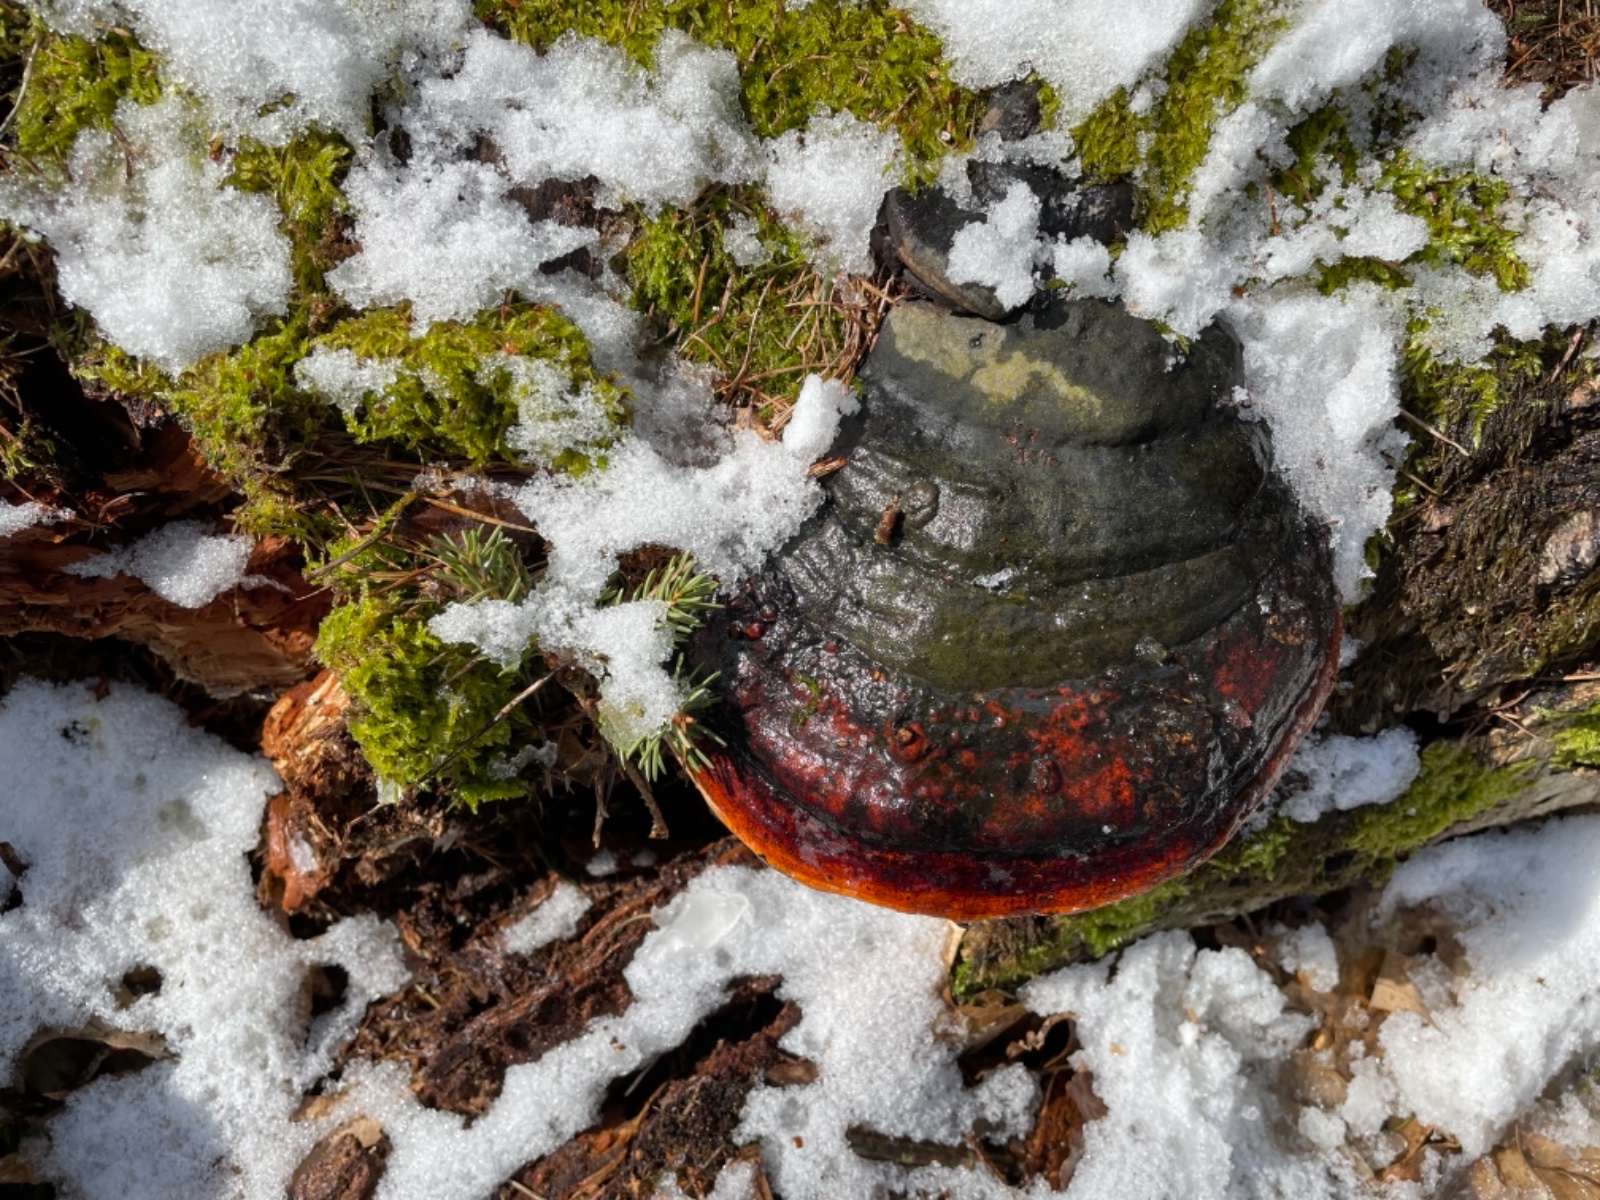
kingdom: Fungi
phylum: Basidiomycota
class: Agaricomycetes
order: Polyporales
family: Fomitopsidaceae
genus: Fomitopsis
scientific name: Fomitopsis pinicola
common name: randbæltet hovporesvamp
